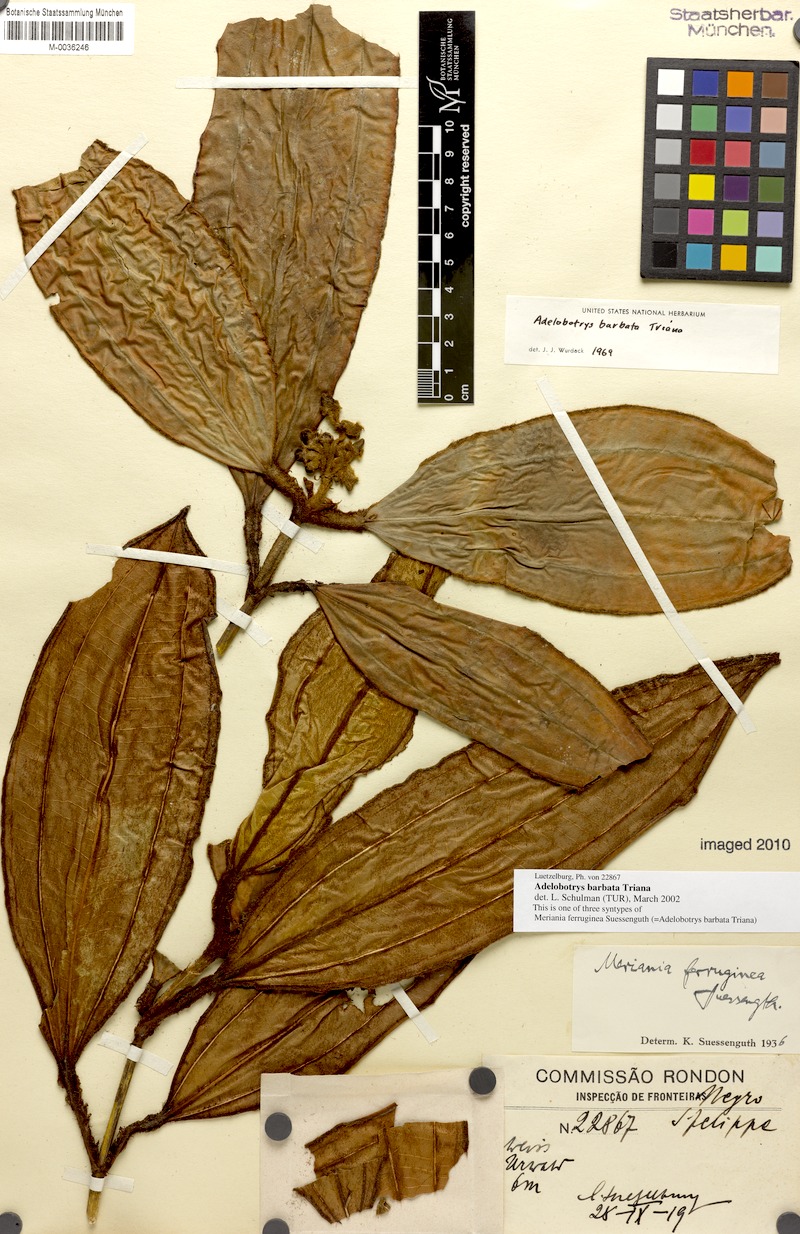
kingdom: Plantae
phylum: Tracheophyta
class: Magnoliopsida
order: Myrtales
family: Melastomataceae
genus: Adelobotrys
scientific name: Adelobotrys barbatus
